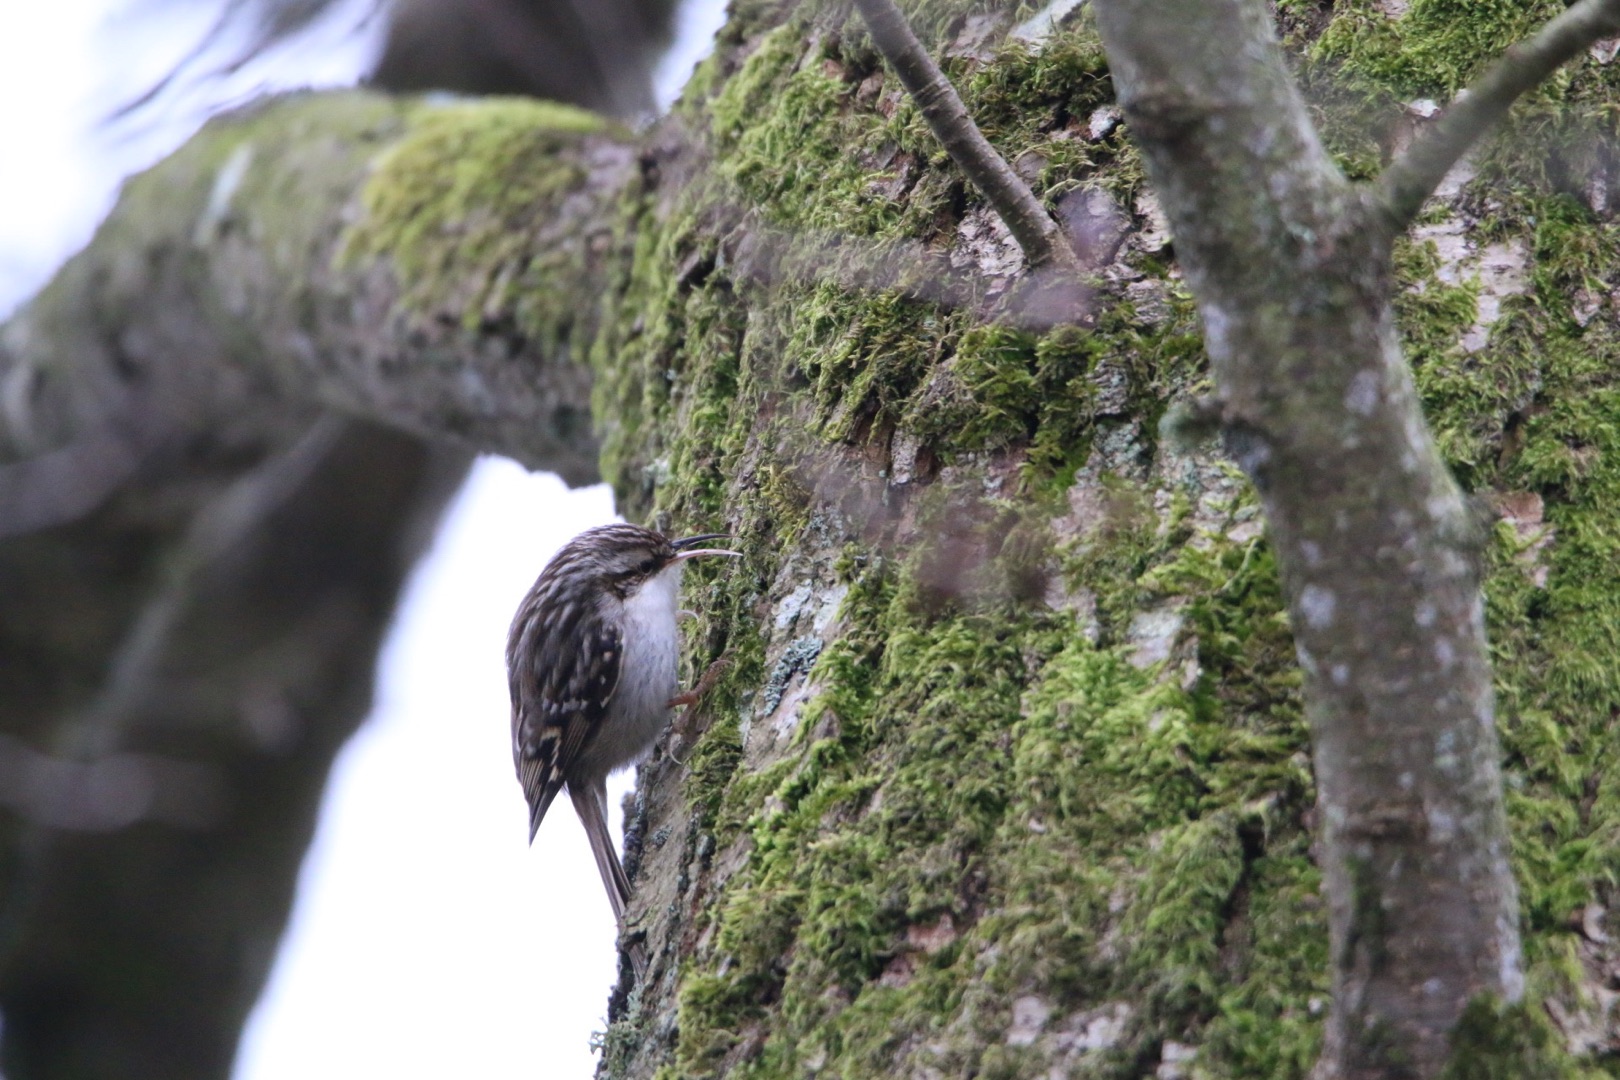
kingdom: Animalia
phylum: Chordata
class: Aves
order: Passeriformes
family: Certhiidae
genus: Certhia
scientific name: Certhia familiaris
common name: Træløber
